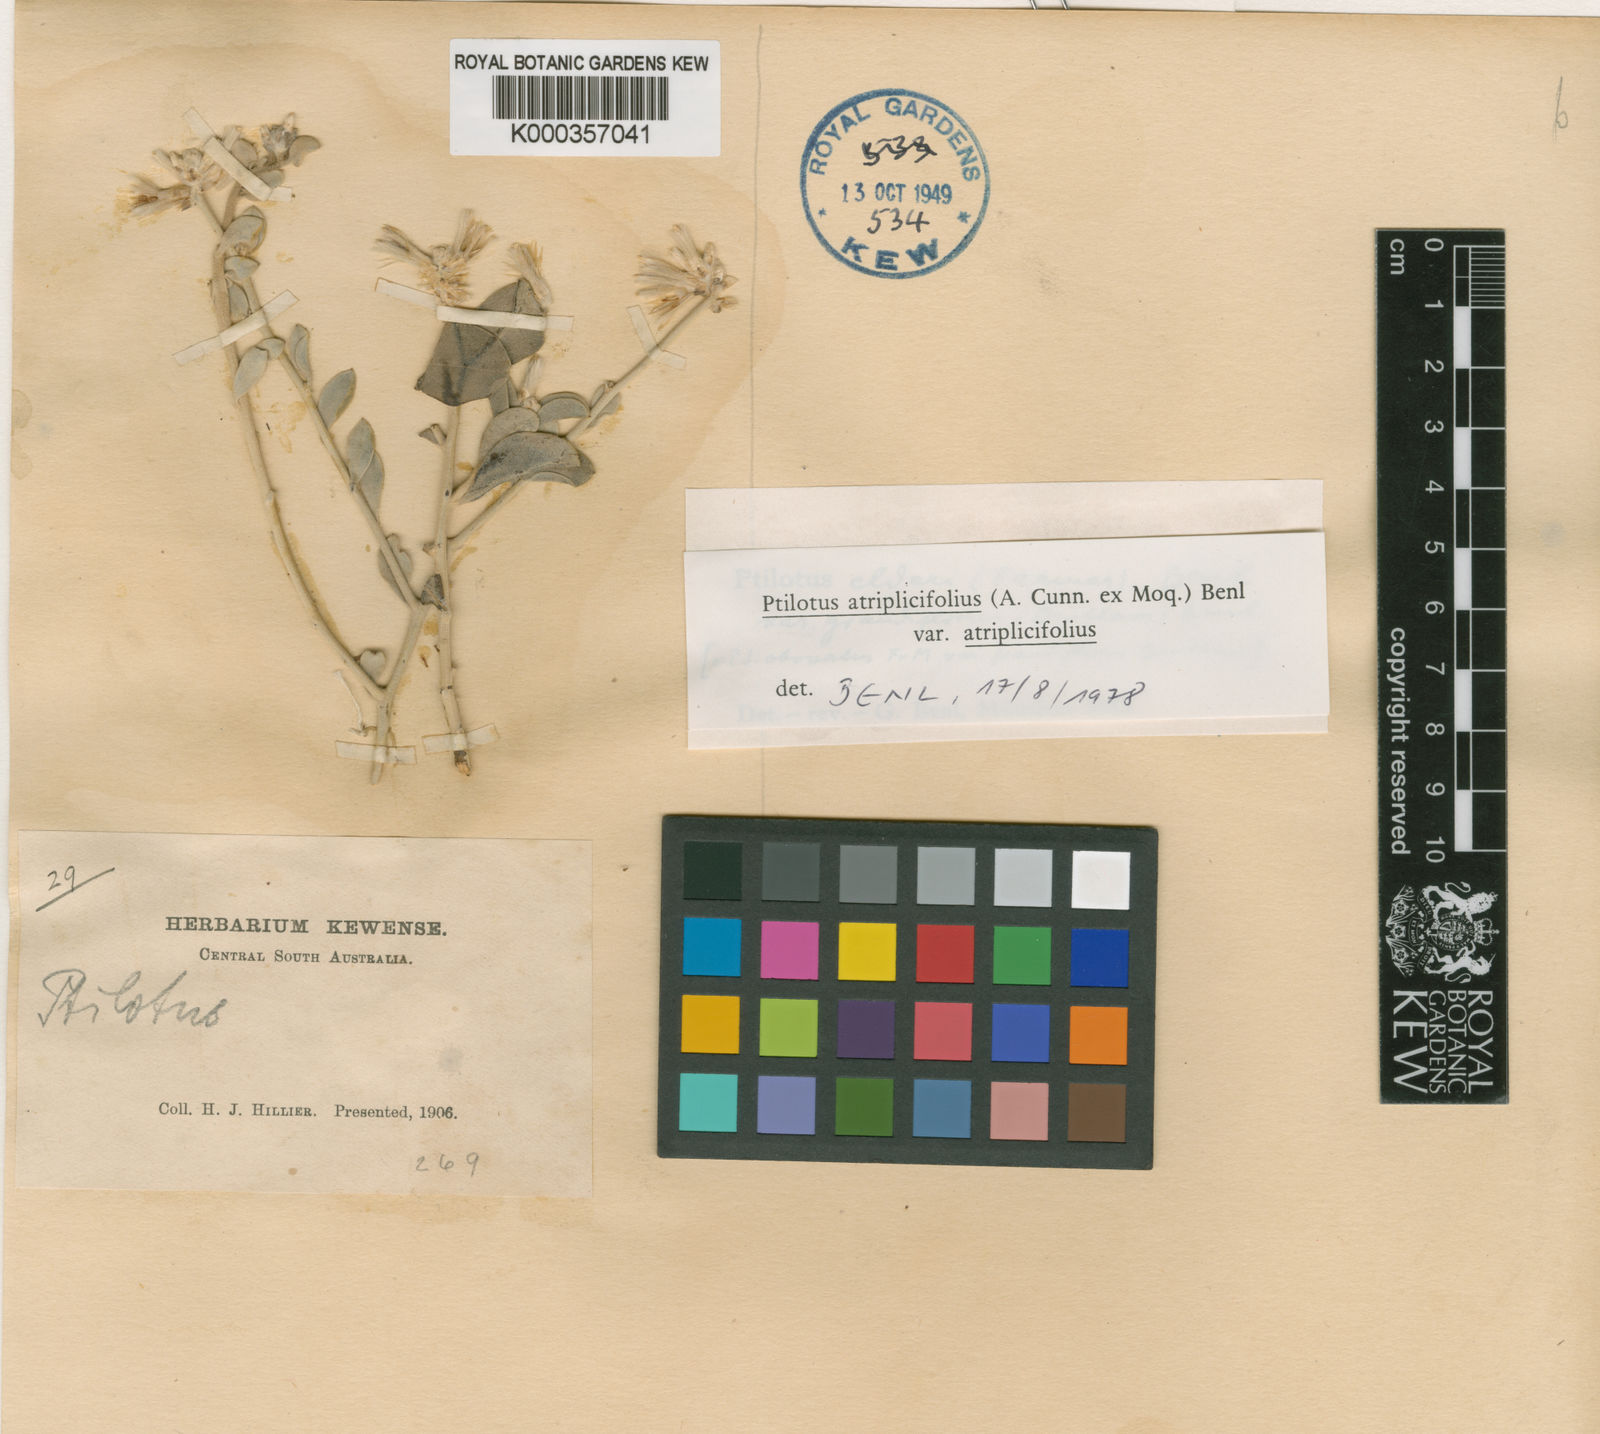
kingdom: Plantae
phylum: Tracheophyta
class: Magnoliopsida
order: Caryophyllales
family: Amaranthaceae
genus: Ptilotus
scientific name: Ptilotus
